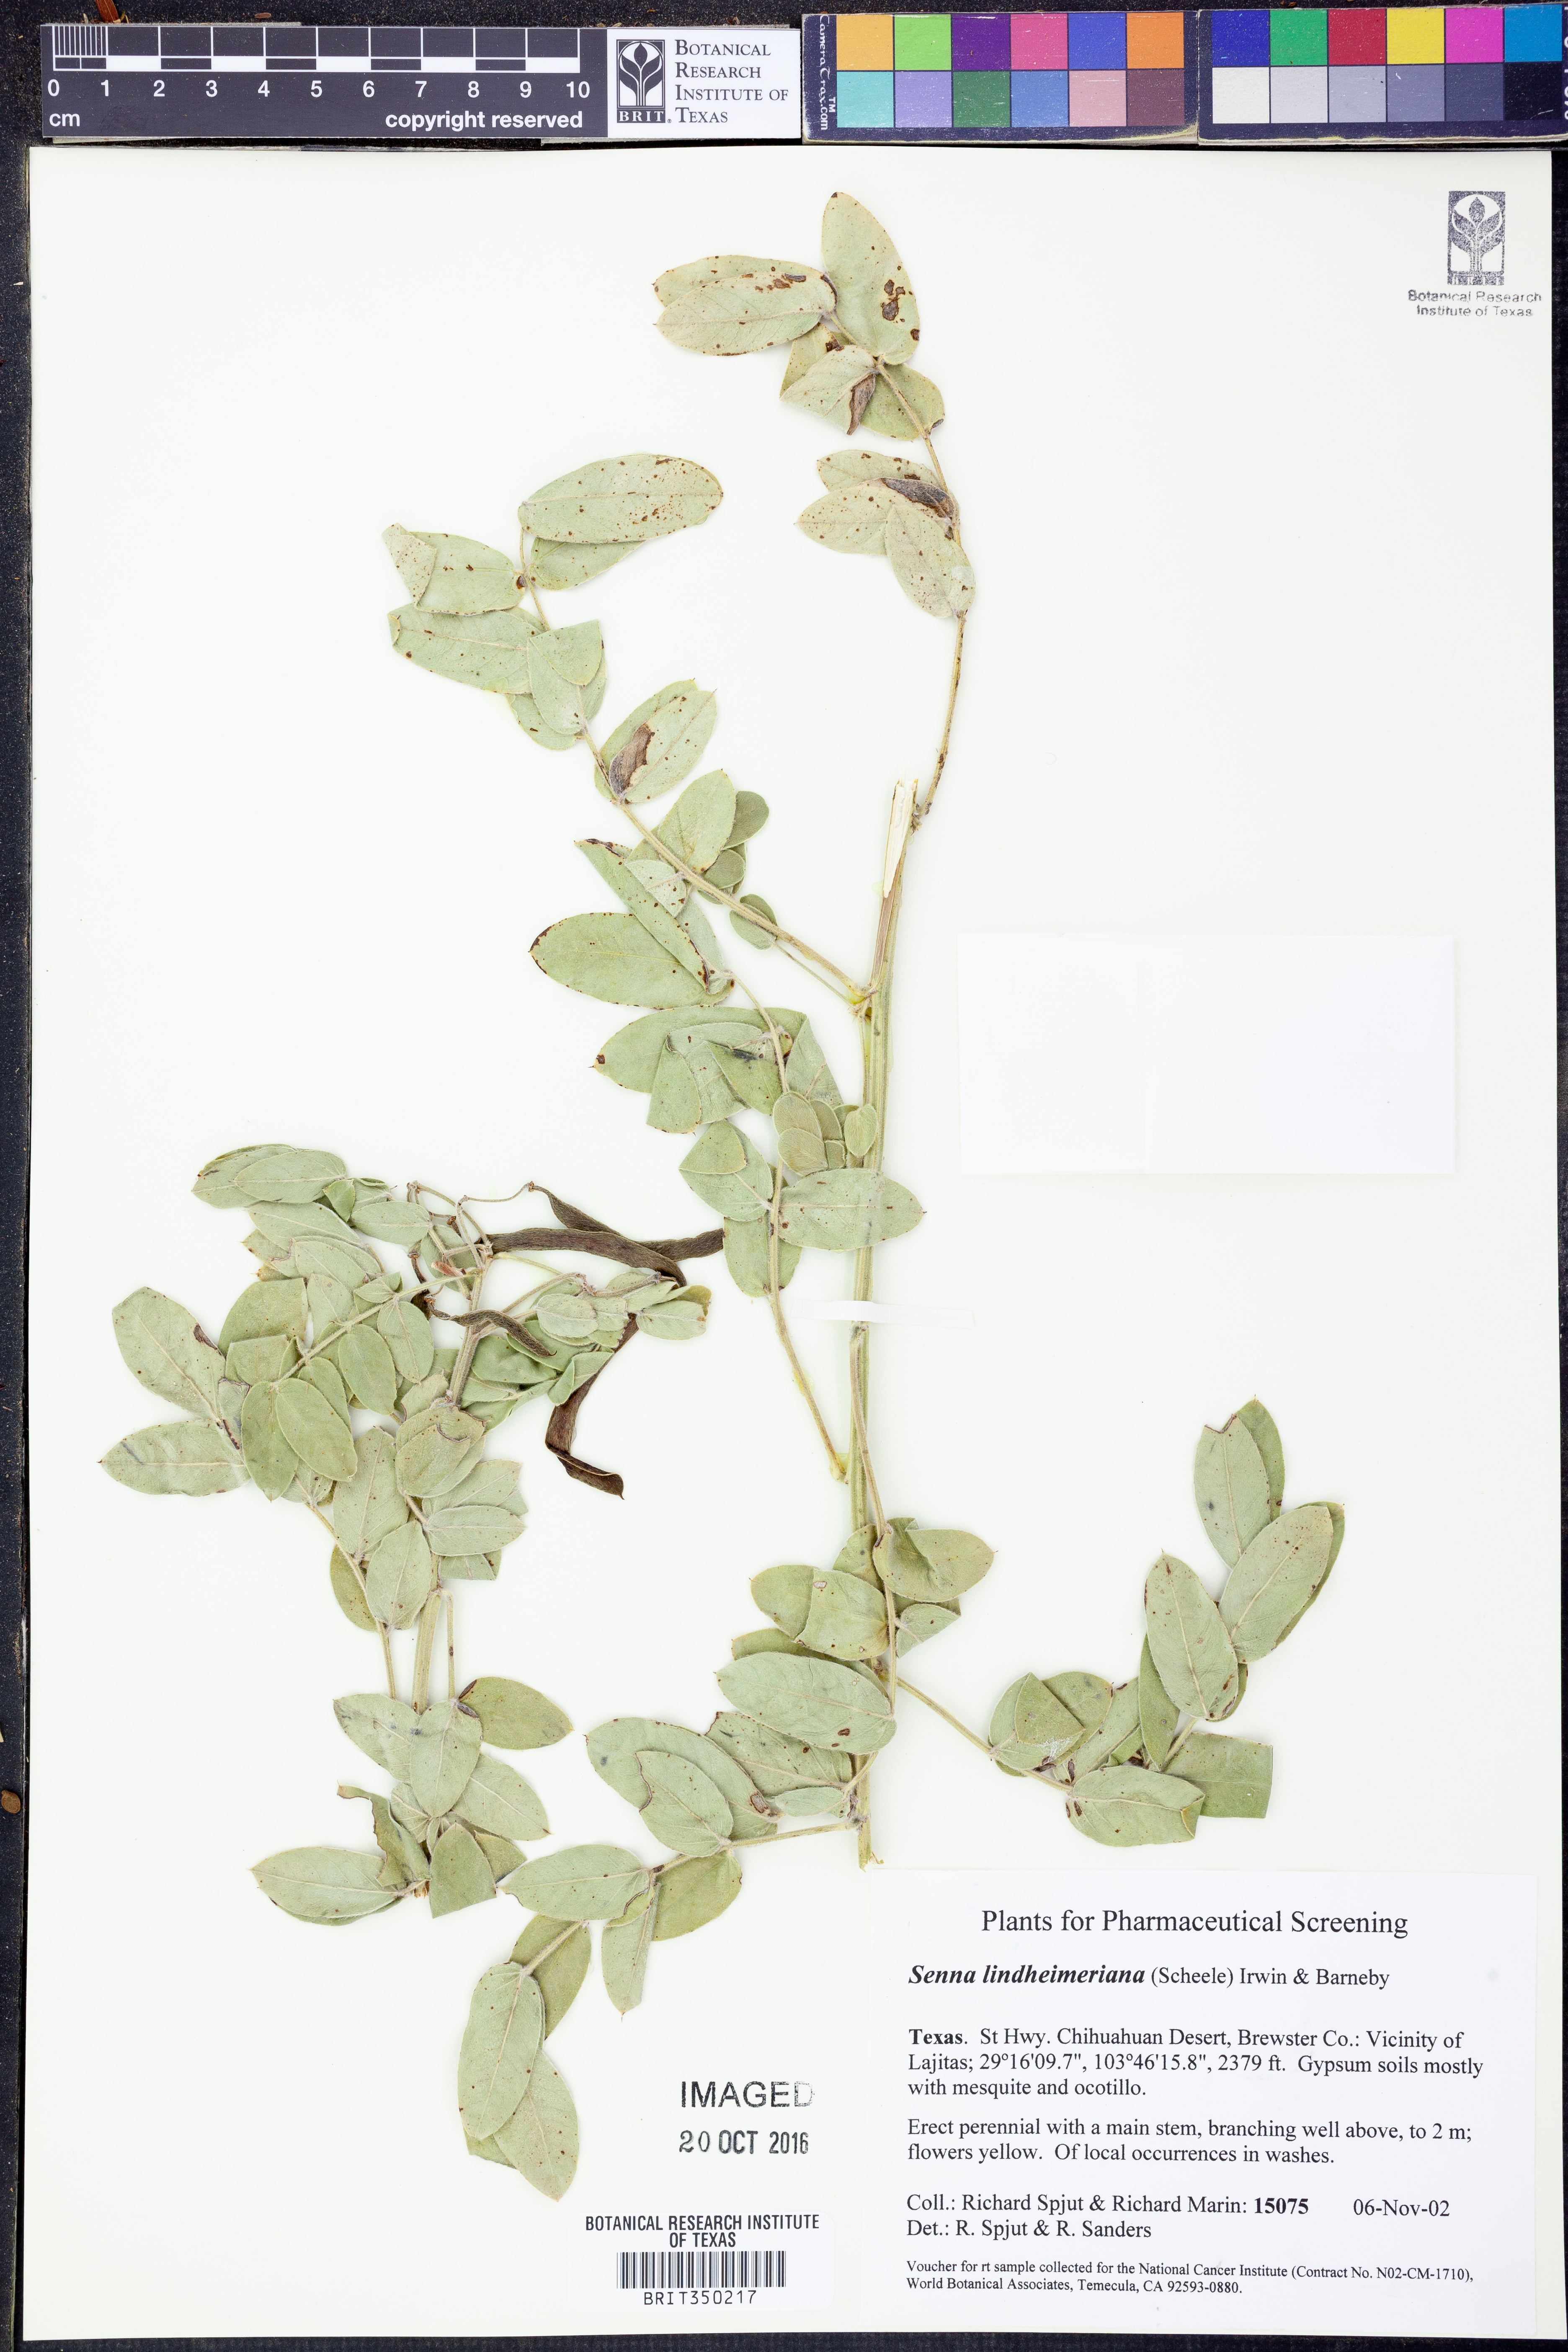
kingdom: Plantae
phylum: Tracheophyta
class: Magnoliopsida
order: Fabales
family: Fabaceae
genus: Senna
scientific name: Senna lindheimeriana
